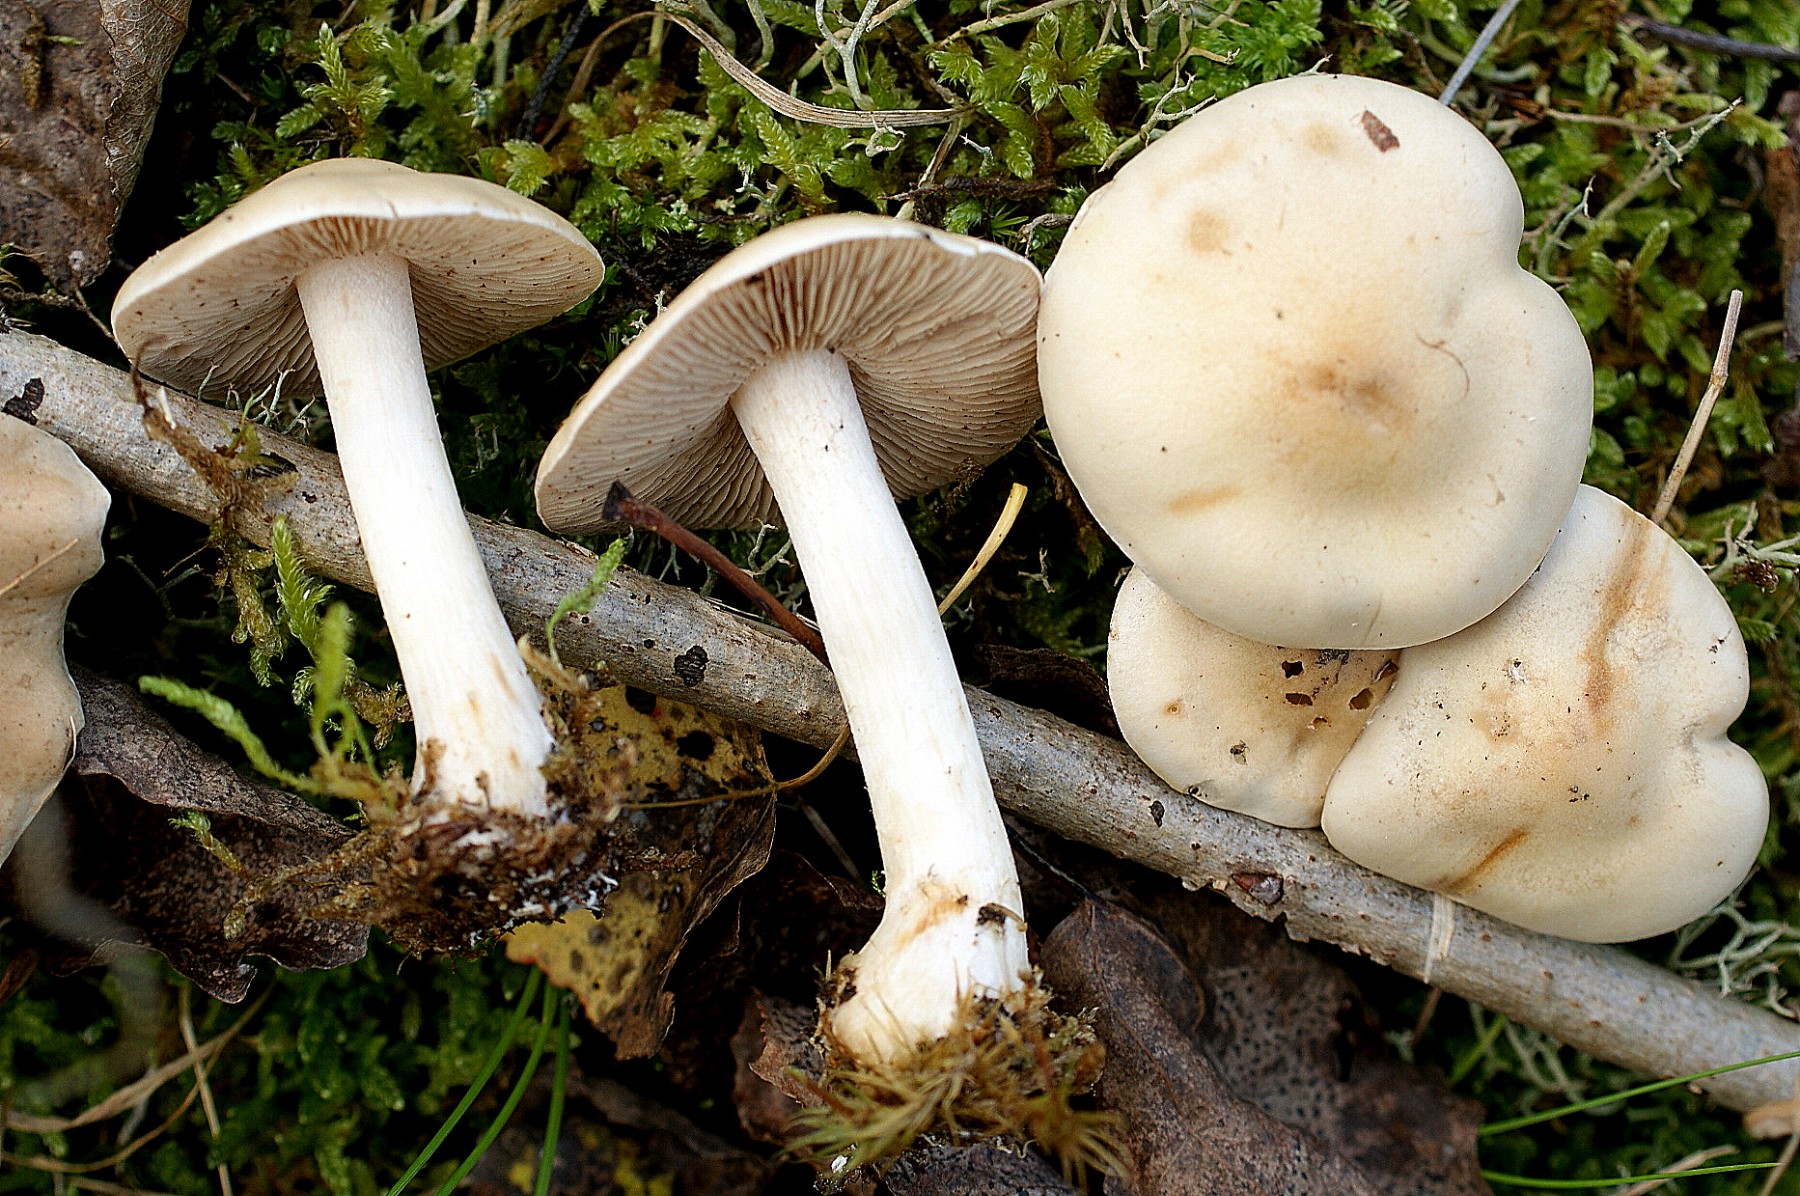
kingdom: Fungi
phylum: Basidiomycota
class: Agaricomycetes
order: Agaricales
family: Hymenogastraceae
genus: Hebeloma
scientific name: Hebeloma
